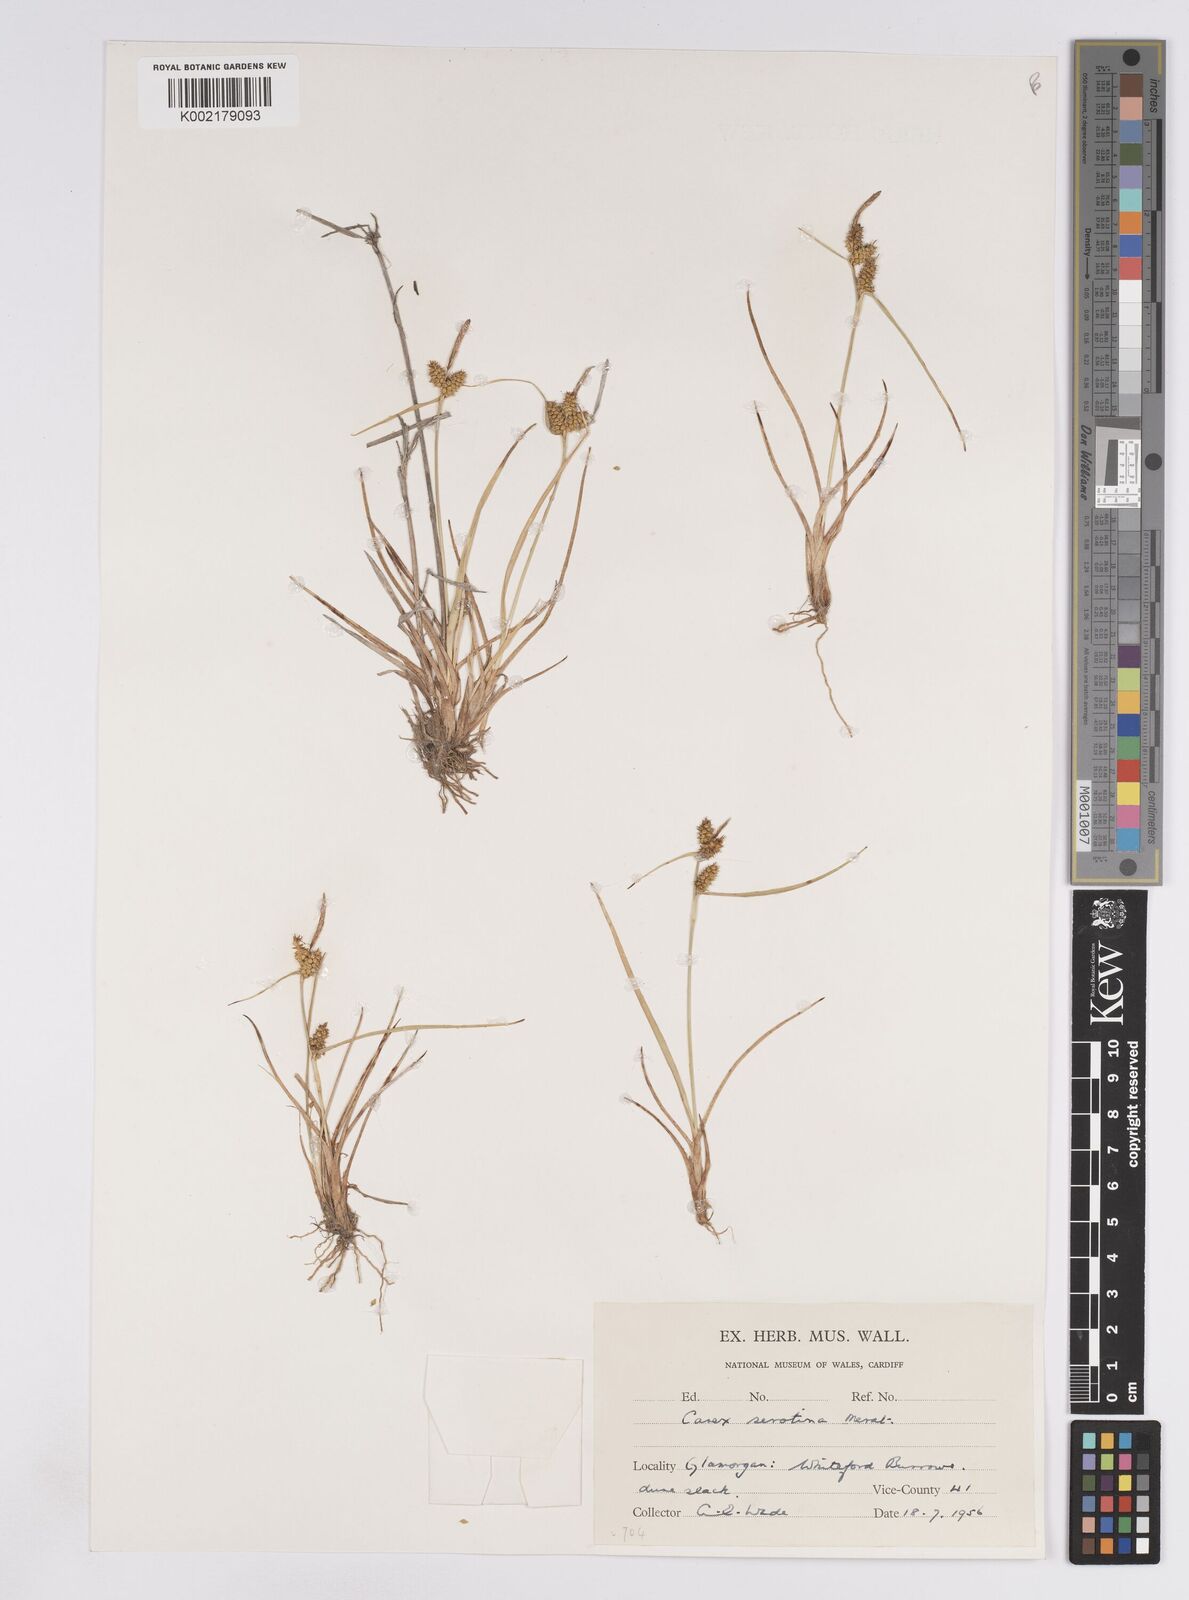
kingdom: Plantae
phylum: Tracheophyta
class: Liliopsida
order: Poales
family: Cyperaceae
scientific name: Cyperaceae
